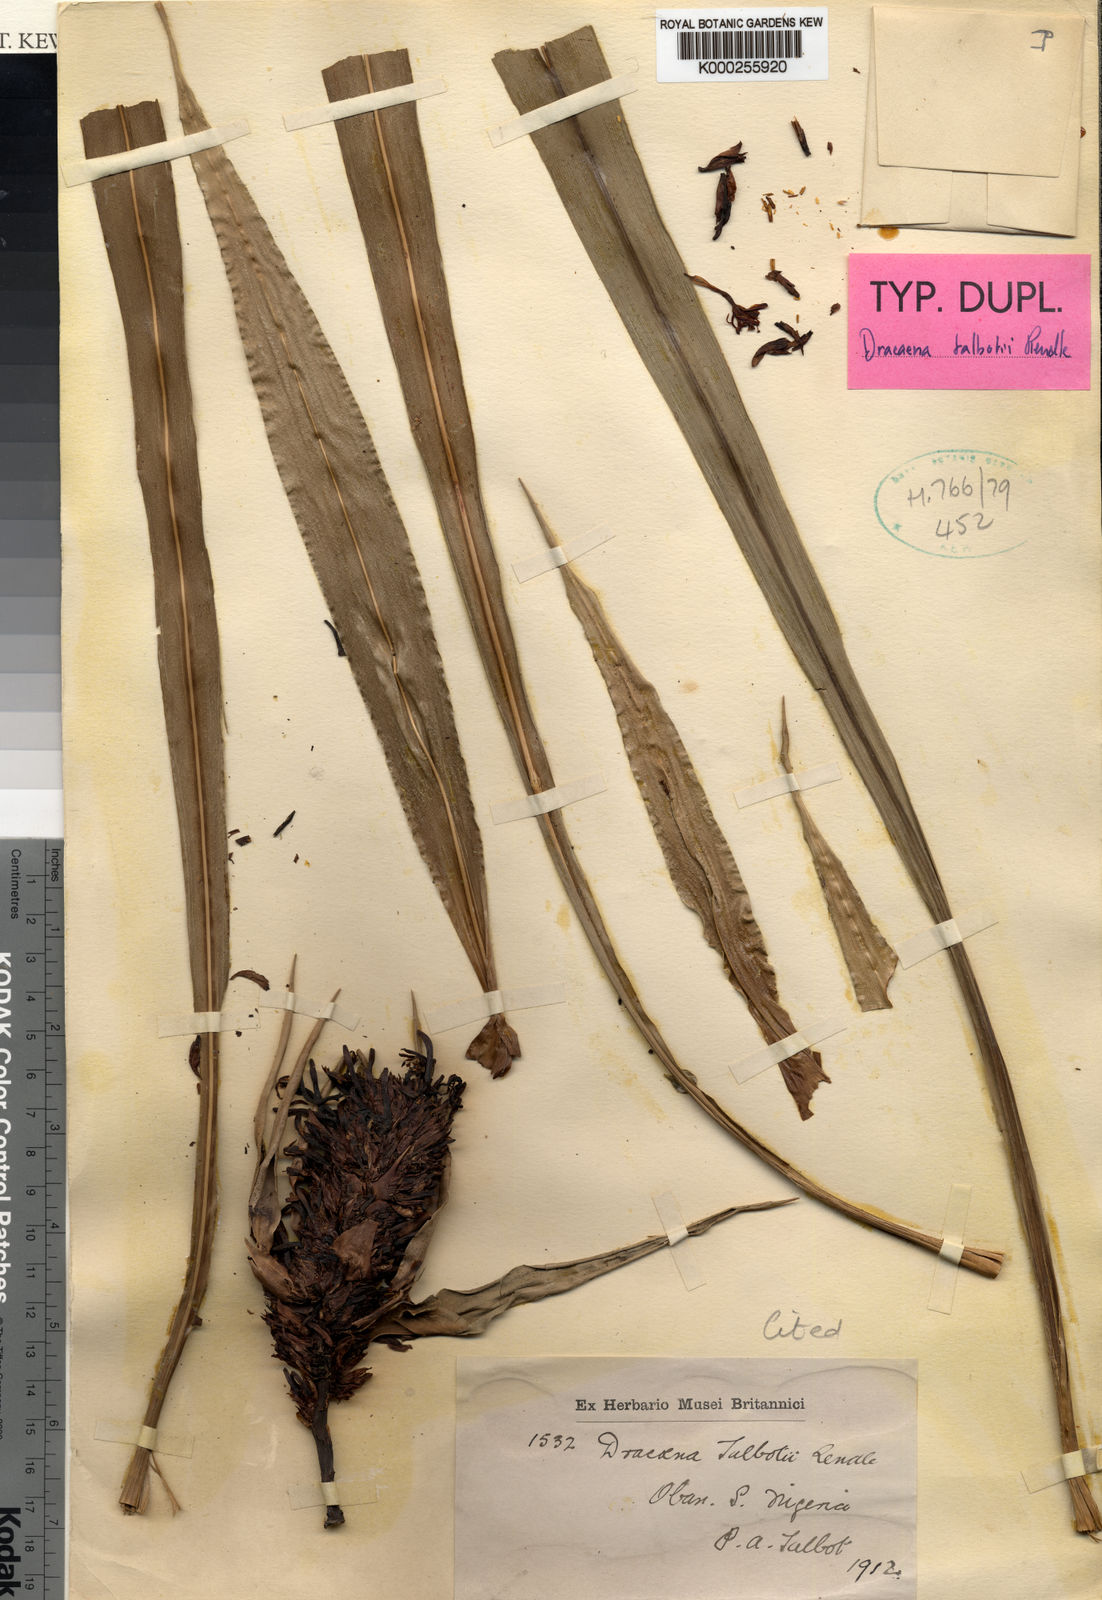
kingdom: Plantae
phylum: Tracheophyta
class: Liliopsida
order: Asparagales
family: Asparagaceae
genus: Dracaena
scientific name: Dracaena bicolor
